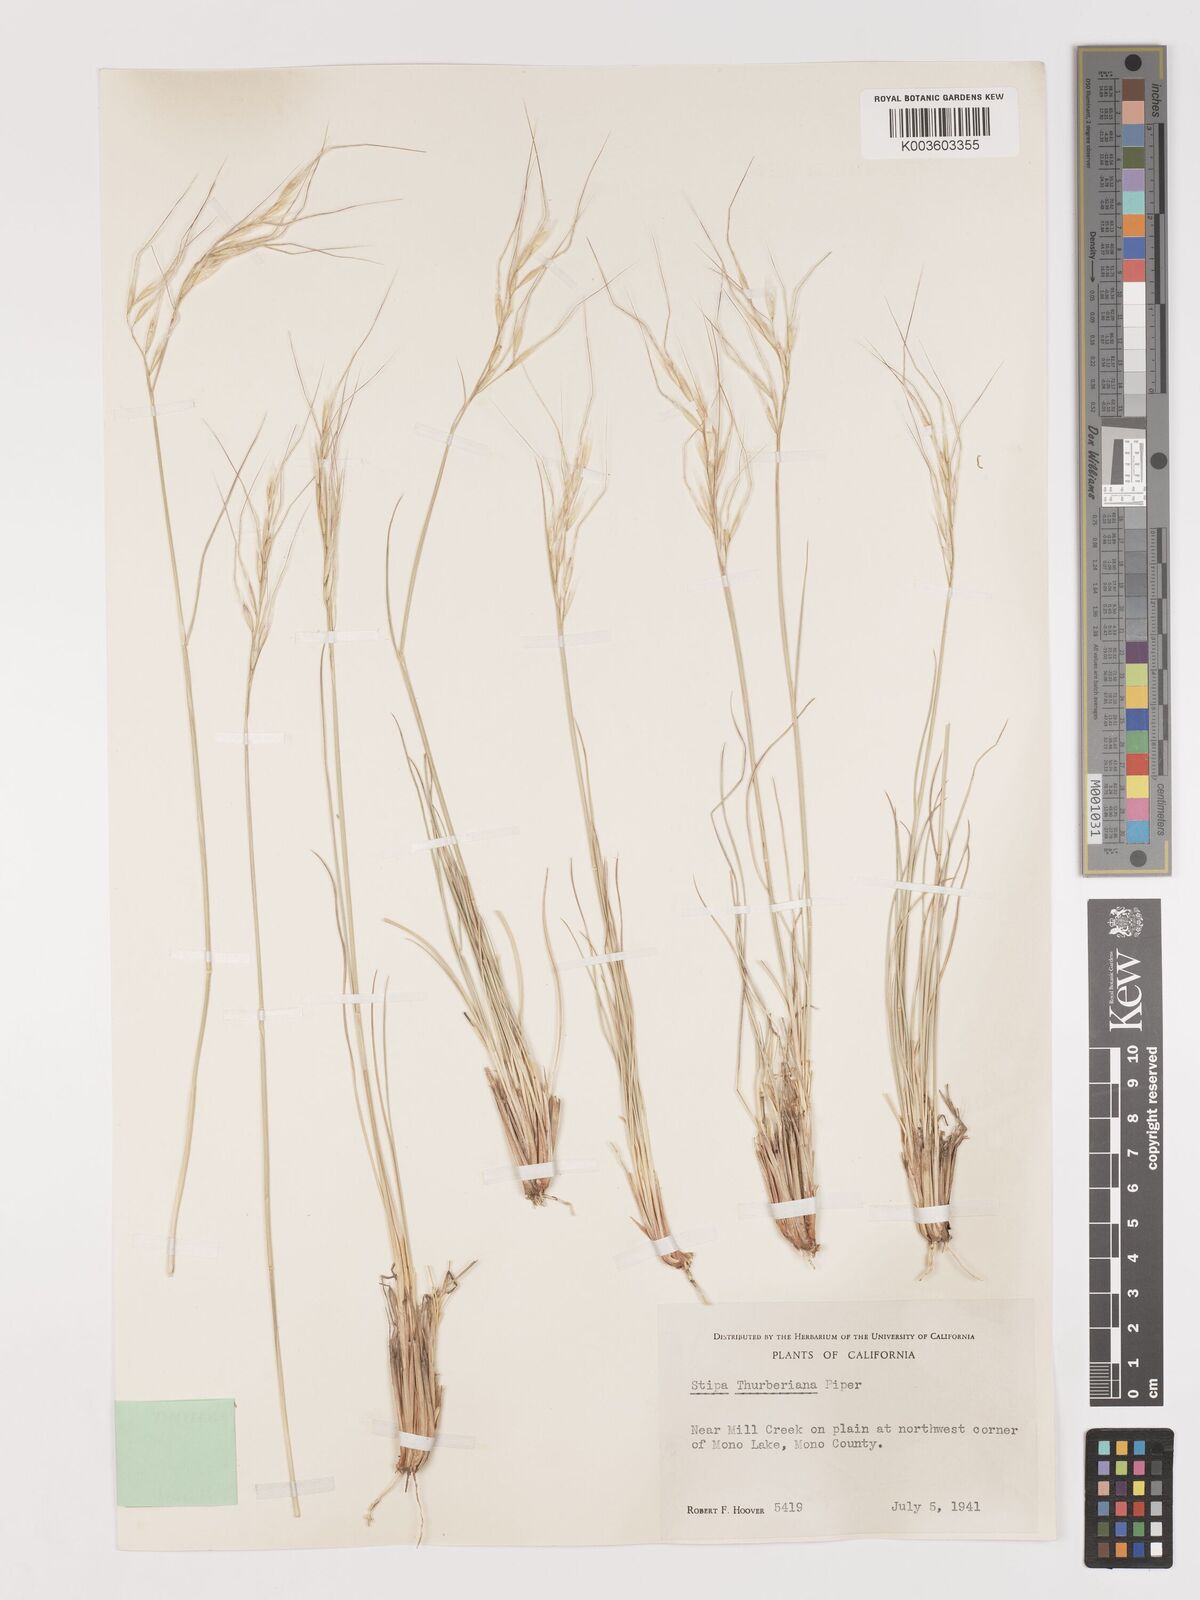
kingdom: Plantae
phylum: Tracheophyta
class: Liliopsida
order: Poales
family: Poaceae
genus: Eriocoma
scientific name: Eriocoma thurberiana
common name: Thurber's needlegrass
